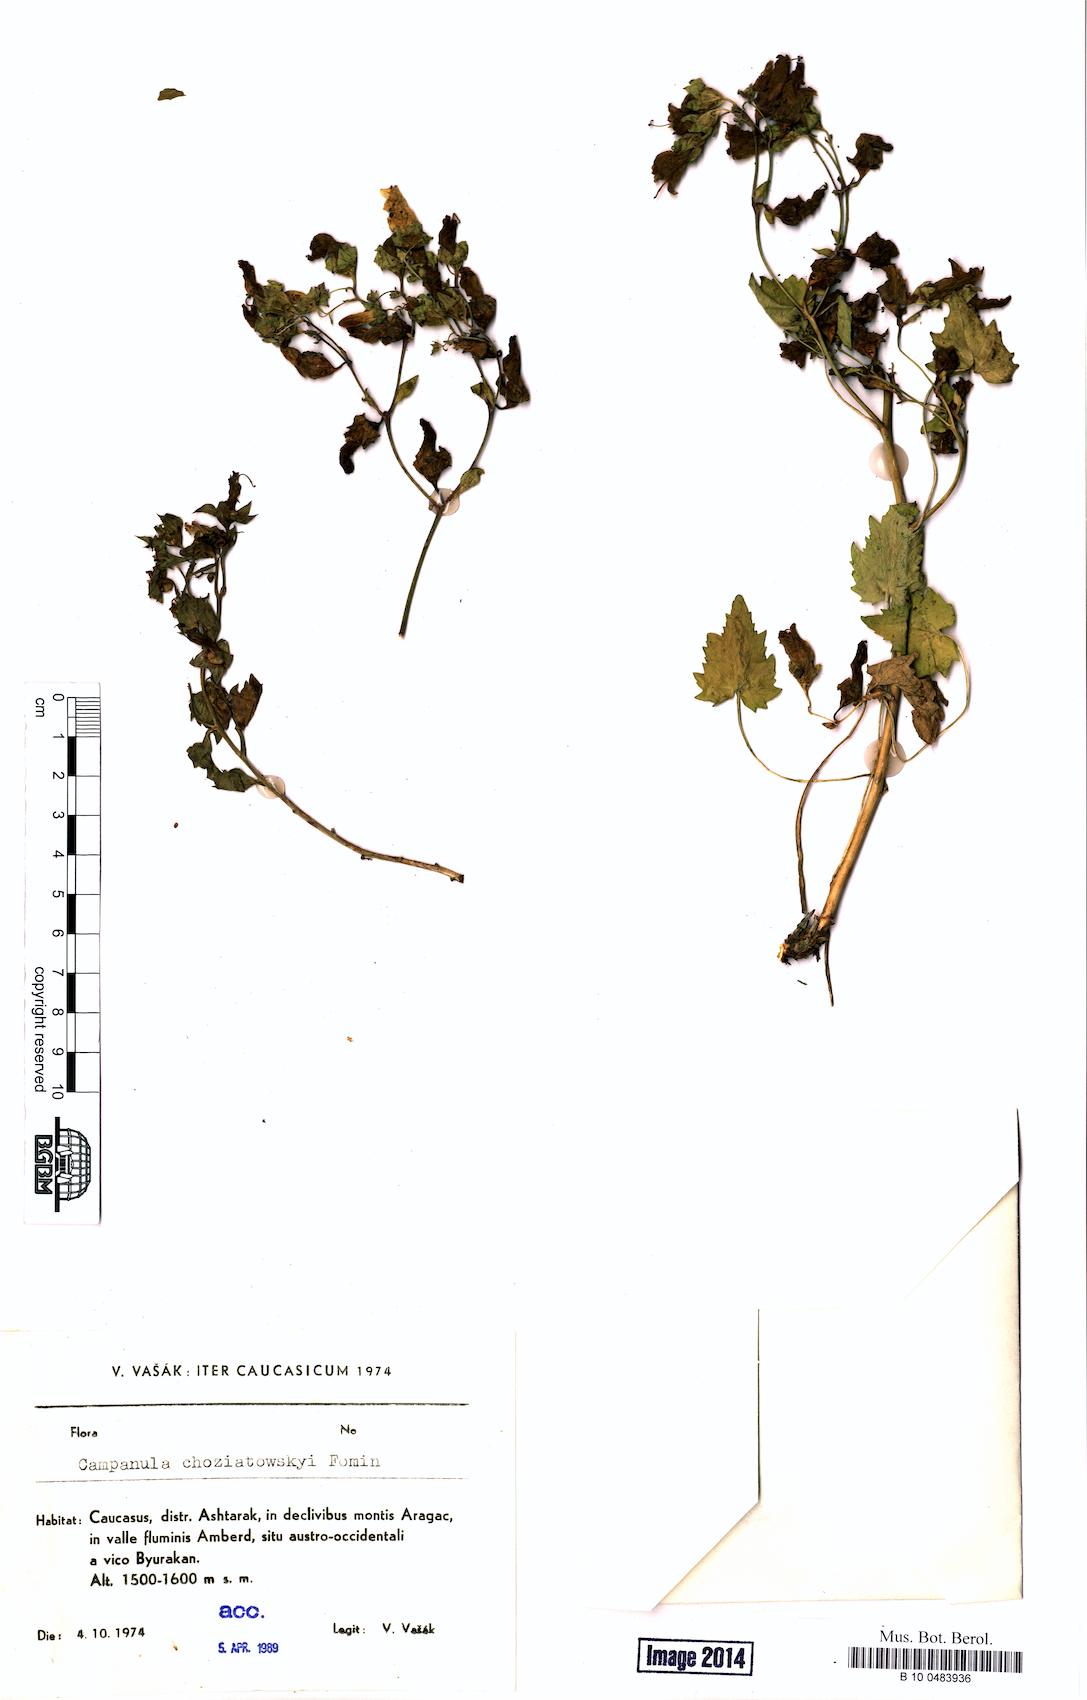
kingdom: Plantae
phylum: Tracheophyta
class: Magnoliopsida
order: Asterales
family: Campanulaceae
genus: Campanula
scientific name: Campanula armena
